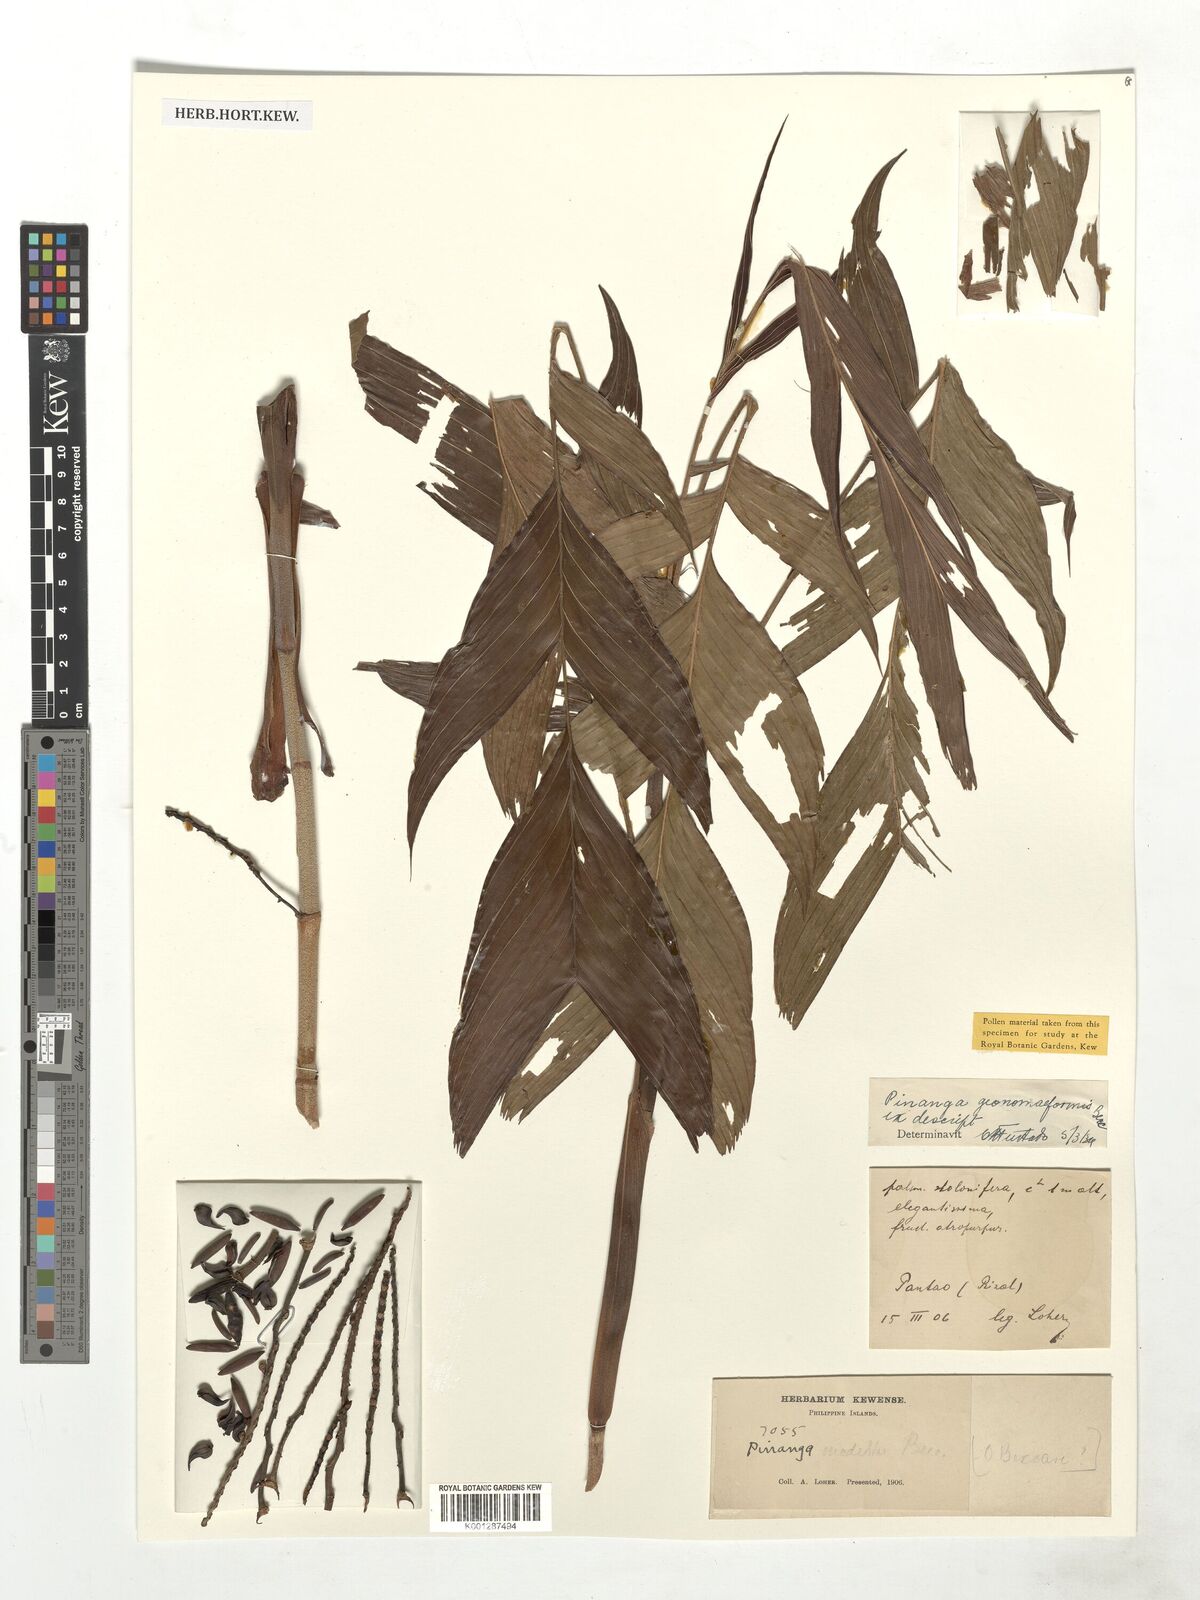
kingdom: Plantae
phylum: Tracheophyta
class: Liliopsida
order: Arecales
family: Arecaceae
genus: Pinanga
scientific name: Pinanga geonomiformis
